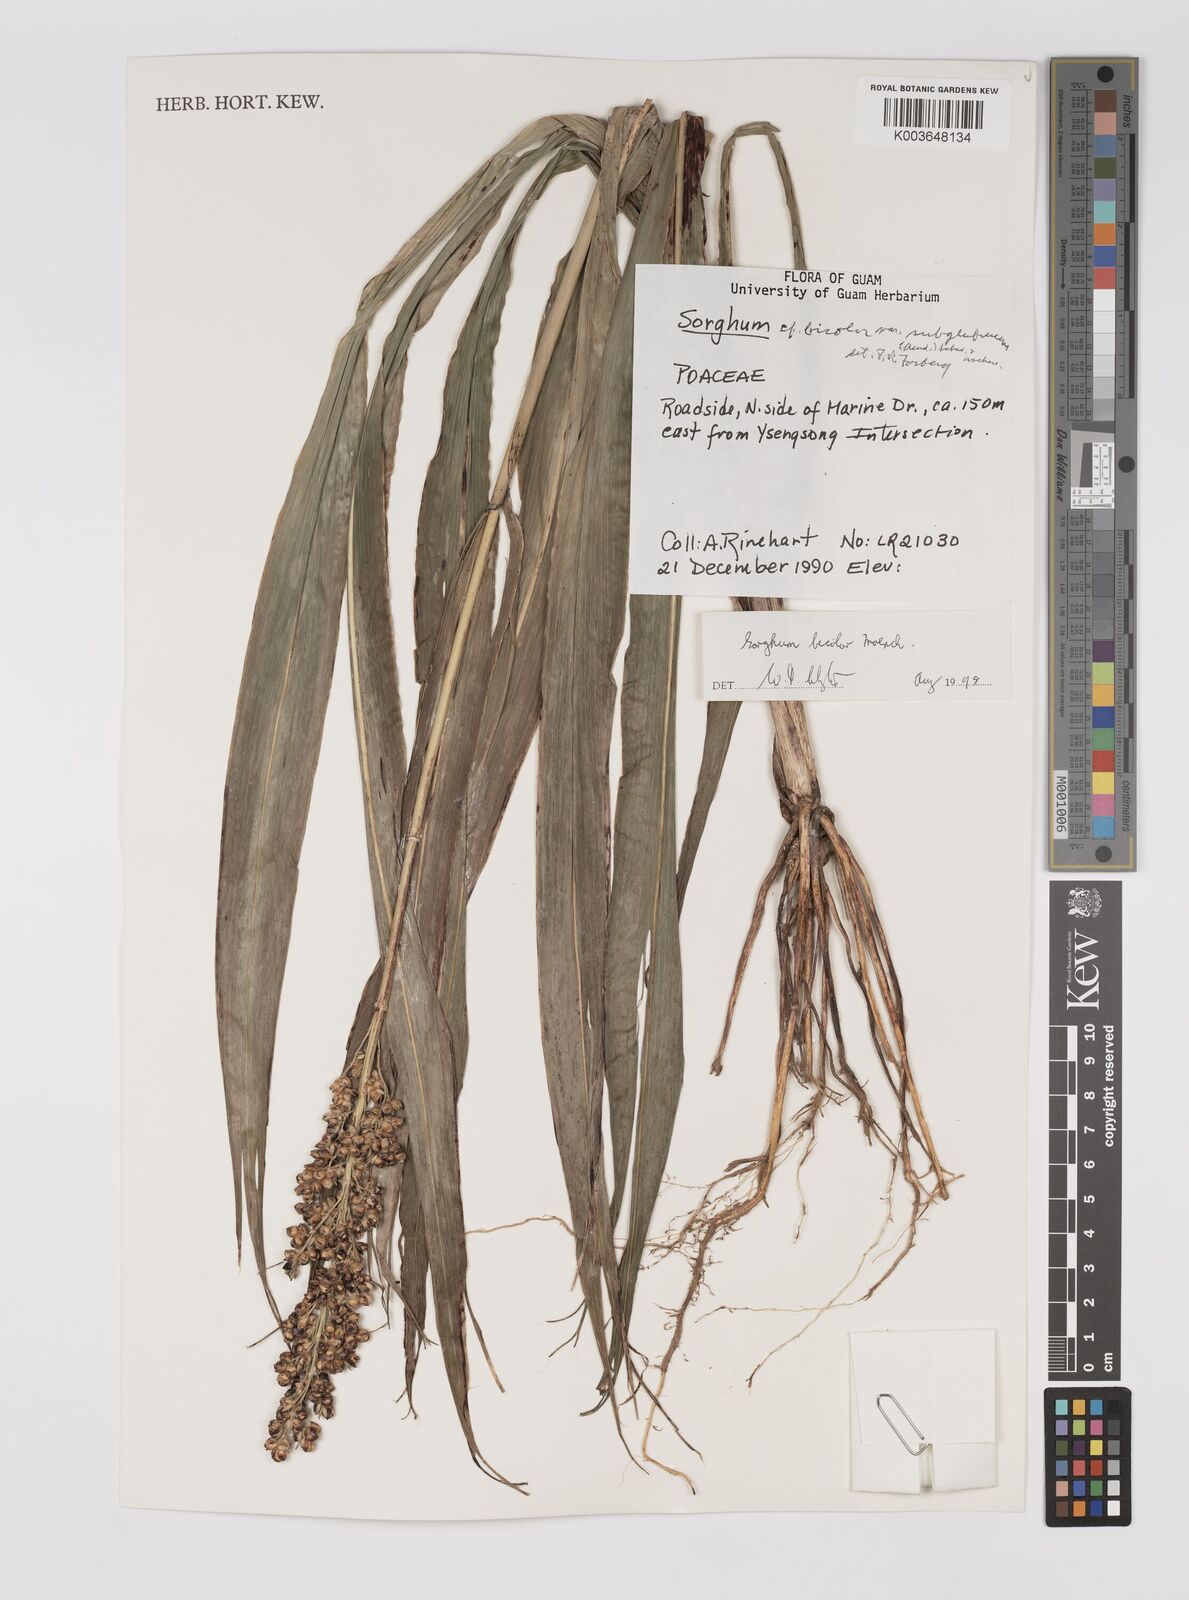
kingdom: Plantae
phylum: Tracheophyta
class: Liliopsida
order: Poales
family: Poaceae
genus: Sorghum
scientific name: Sorghum bicolor
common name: Sorghum
